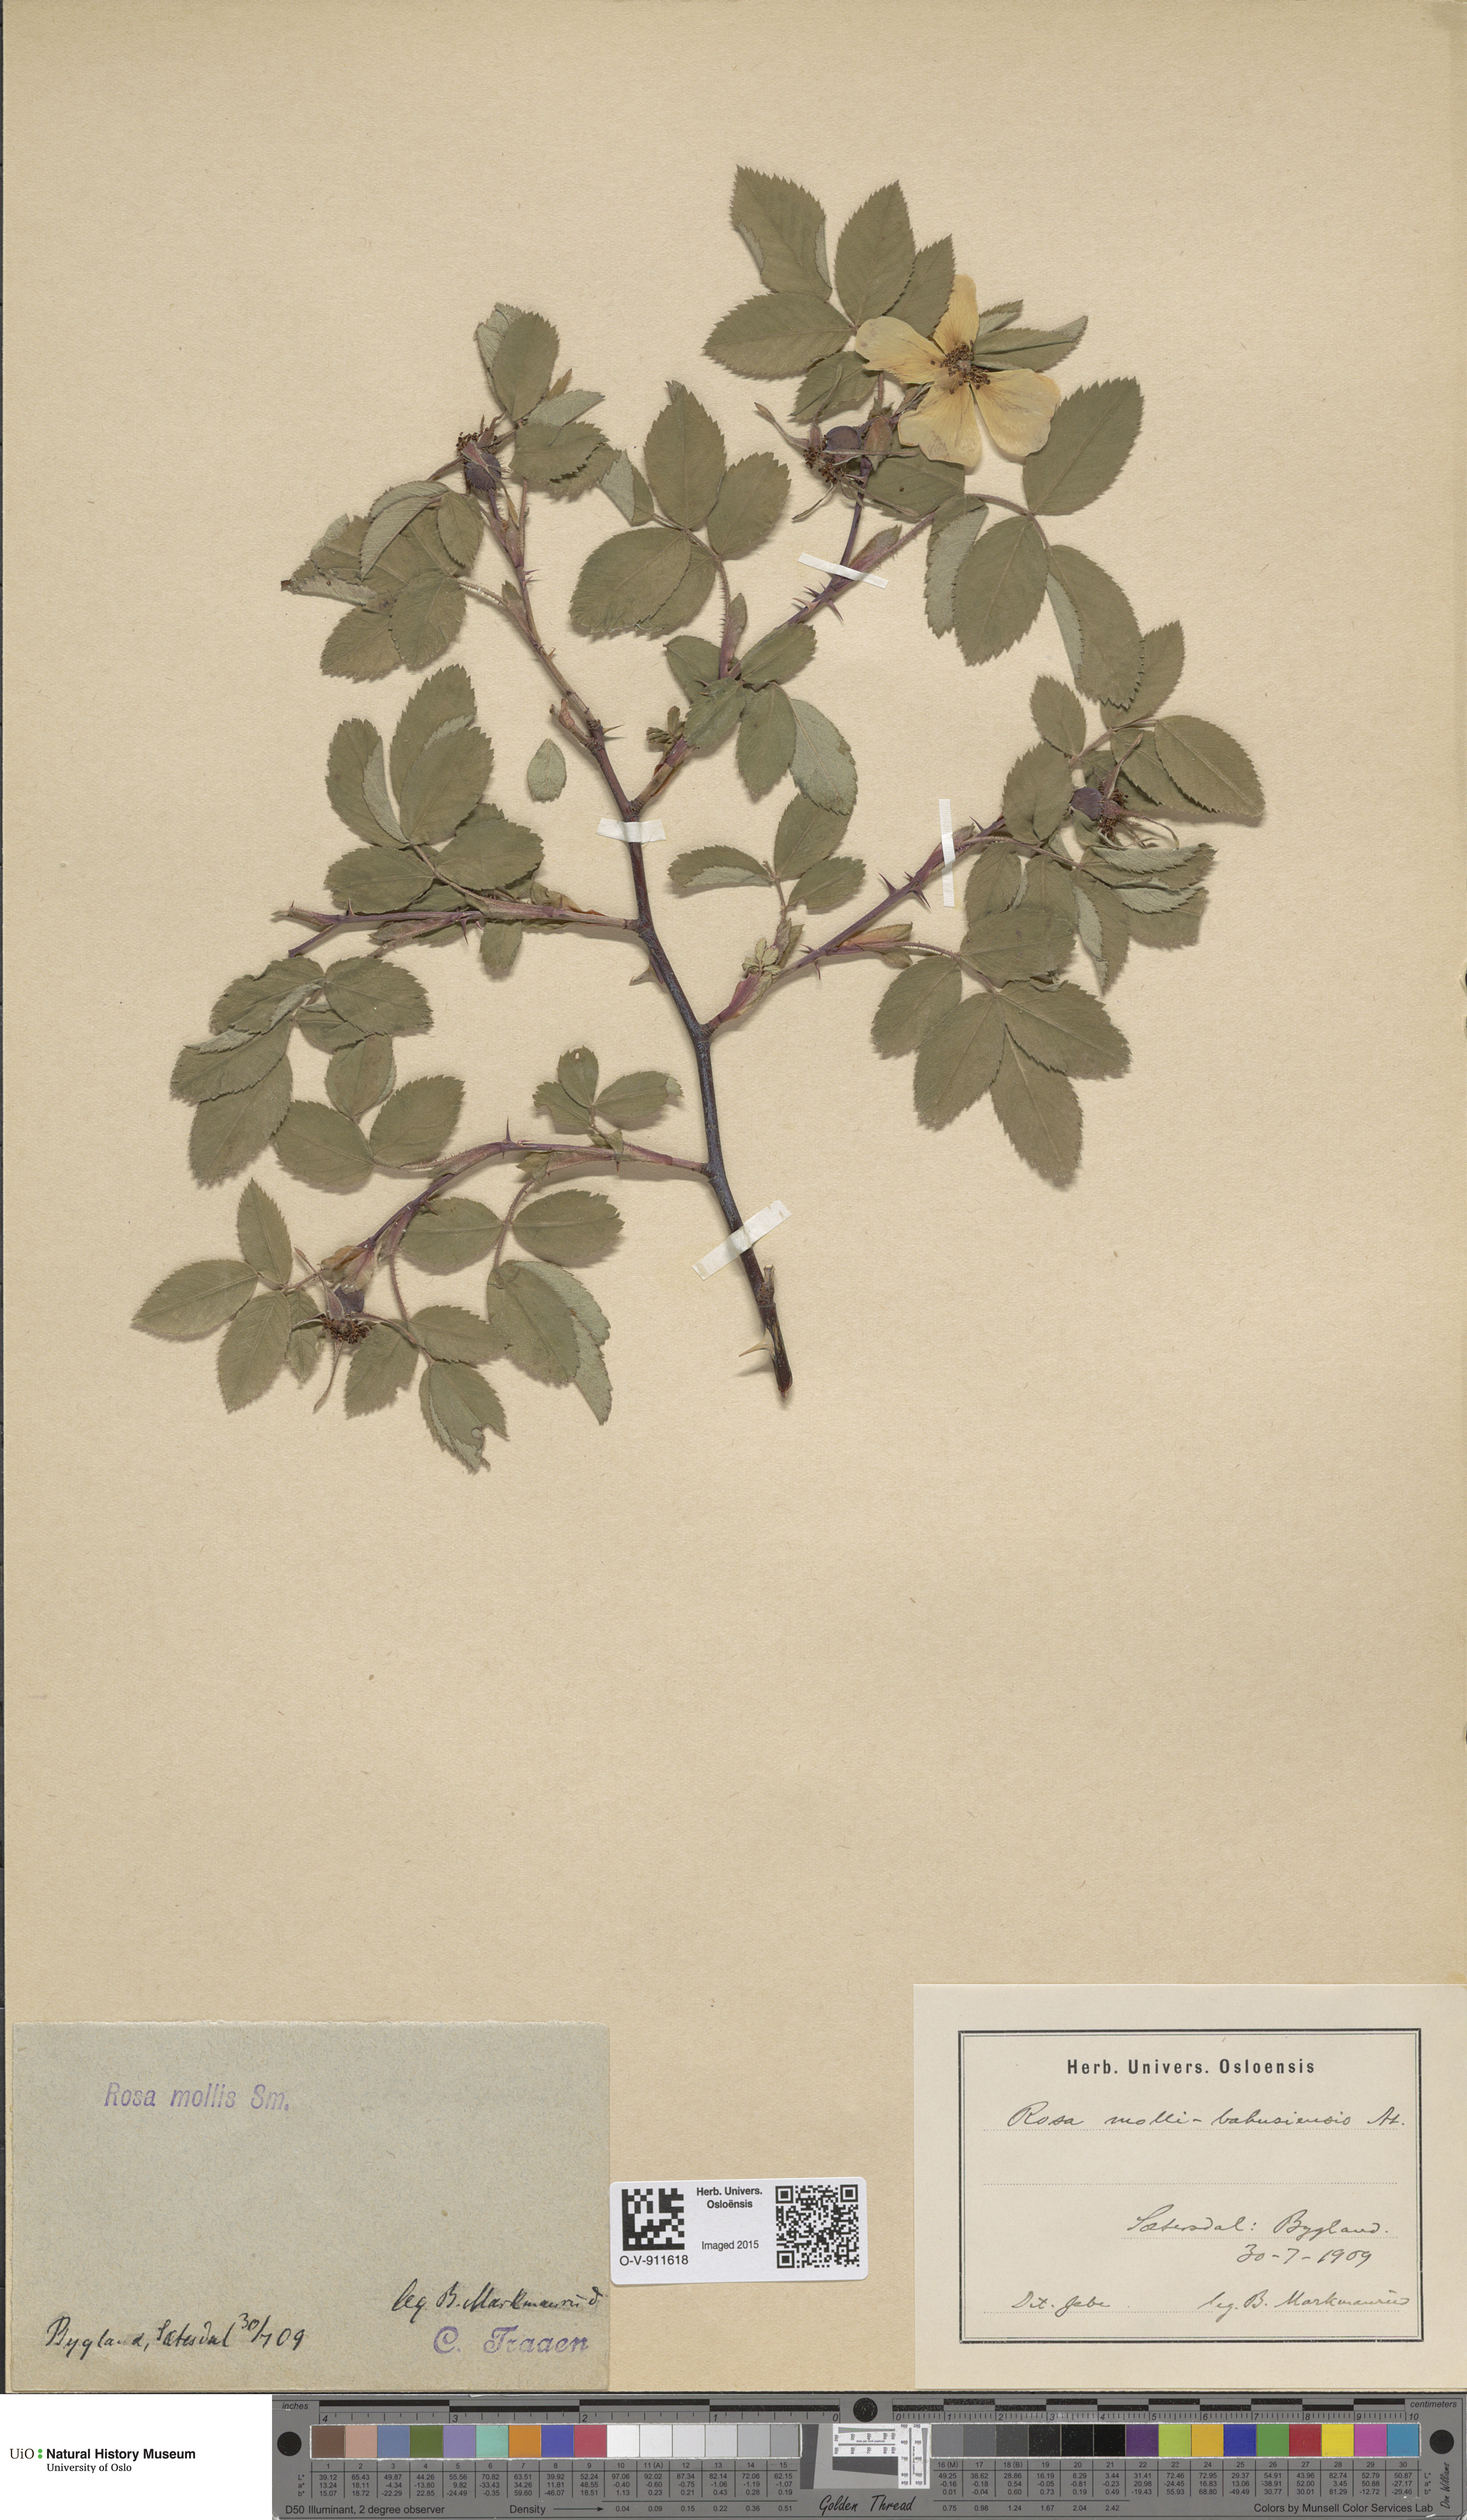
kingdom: Plantae
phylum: Tracheophyta
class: Magnoliopsida
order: Rosales
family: Rosaceae
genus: Rosa
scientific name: Rosa mollis
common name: Rose
